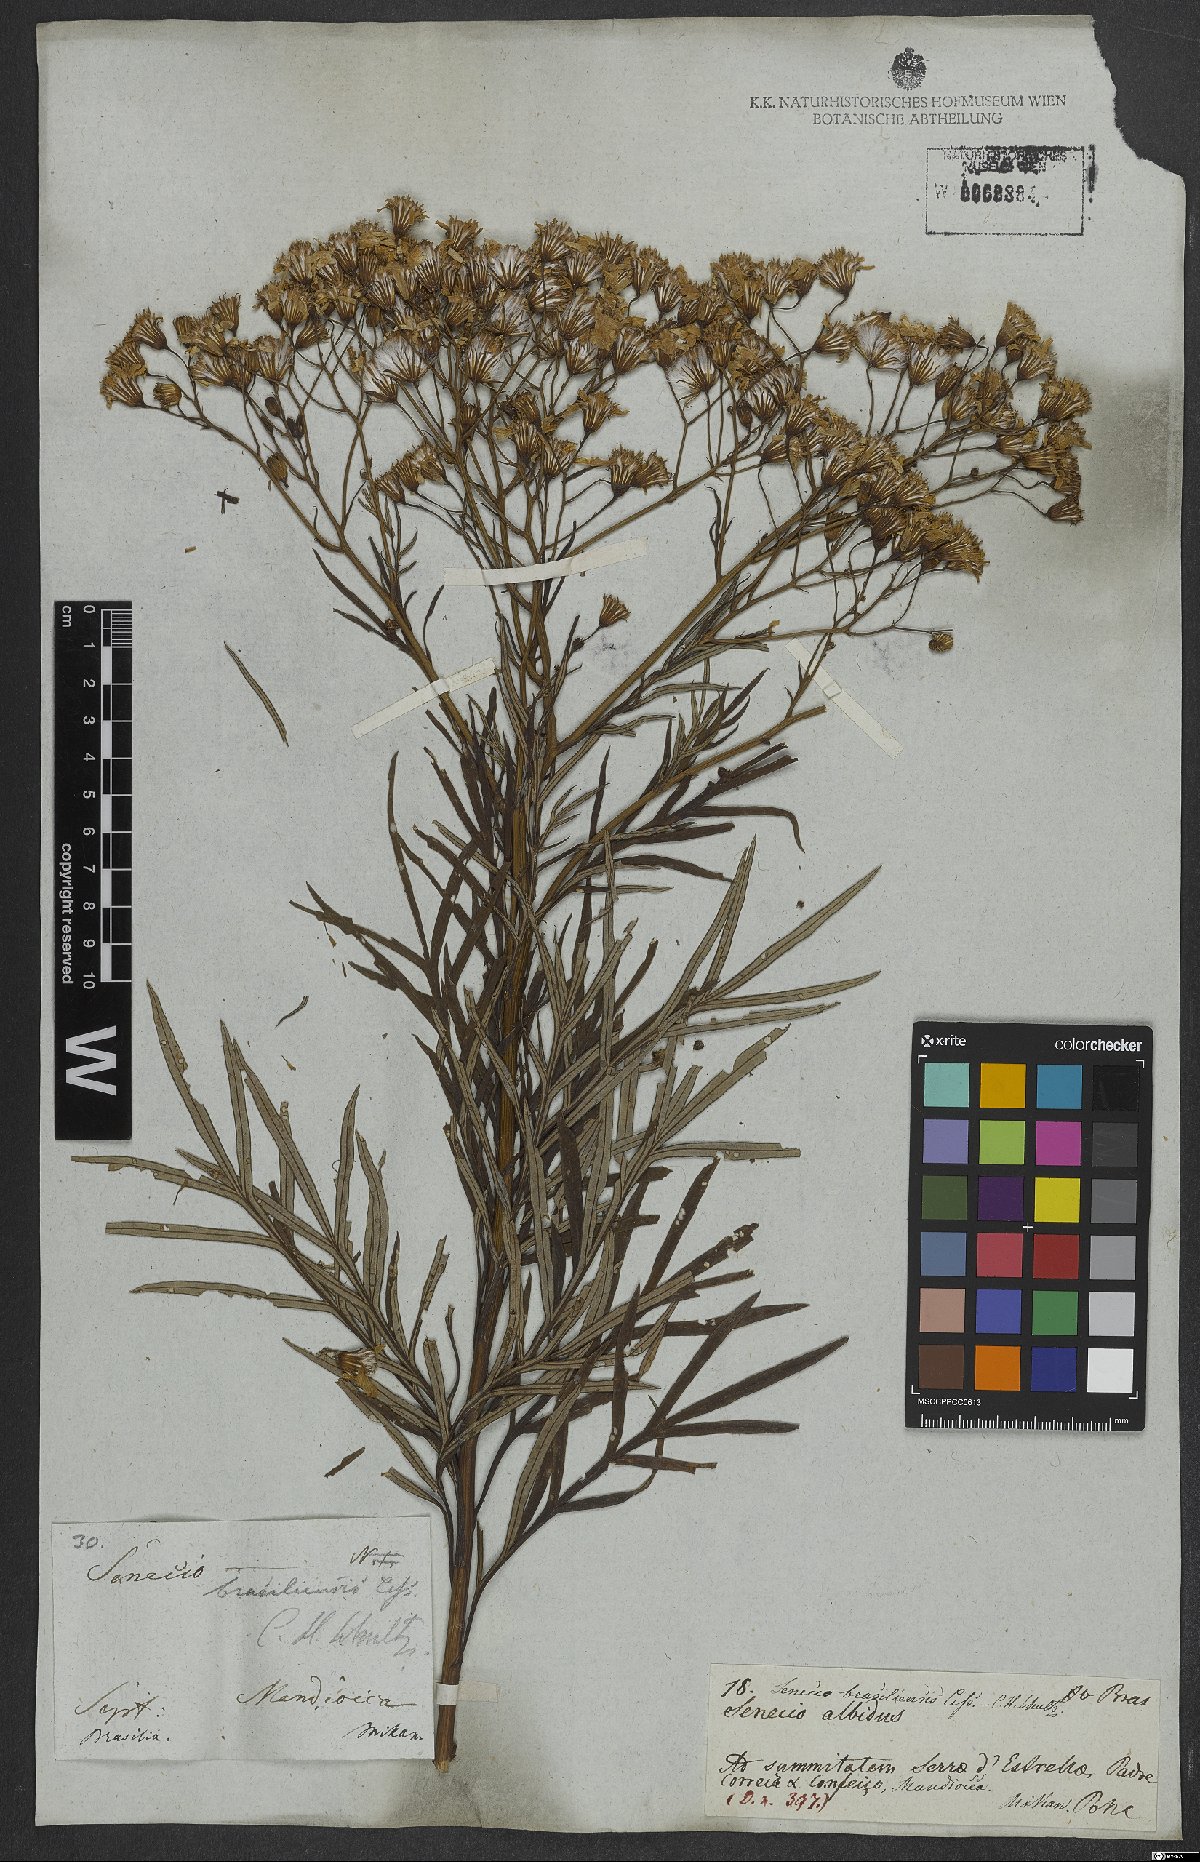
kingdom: Plantae
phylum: Tracheophyta
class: Magnoliopsida
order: Asterales
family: Asteraceae
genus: Senecio
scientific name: Senecio brasiliensis
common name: Hemp-leaf ragwort
